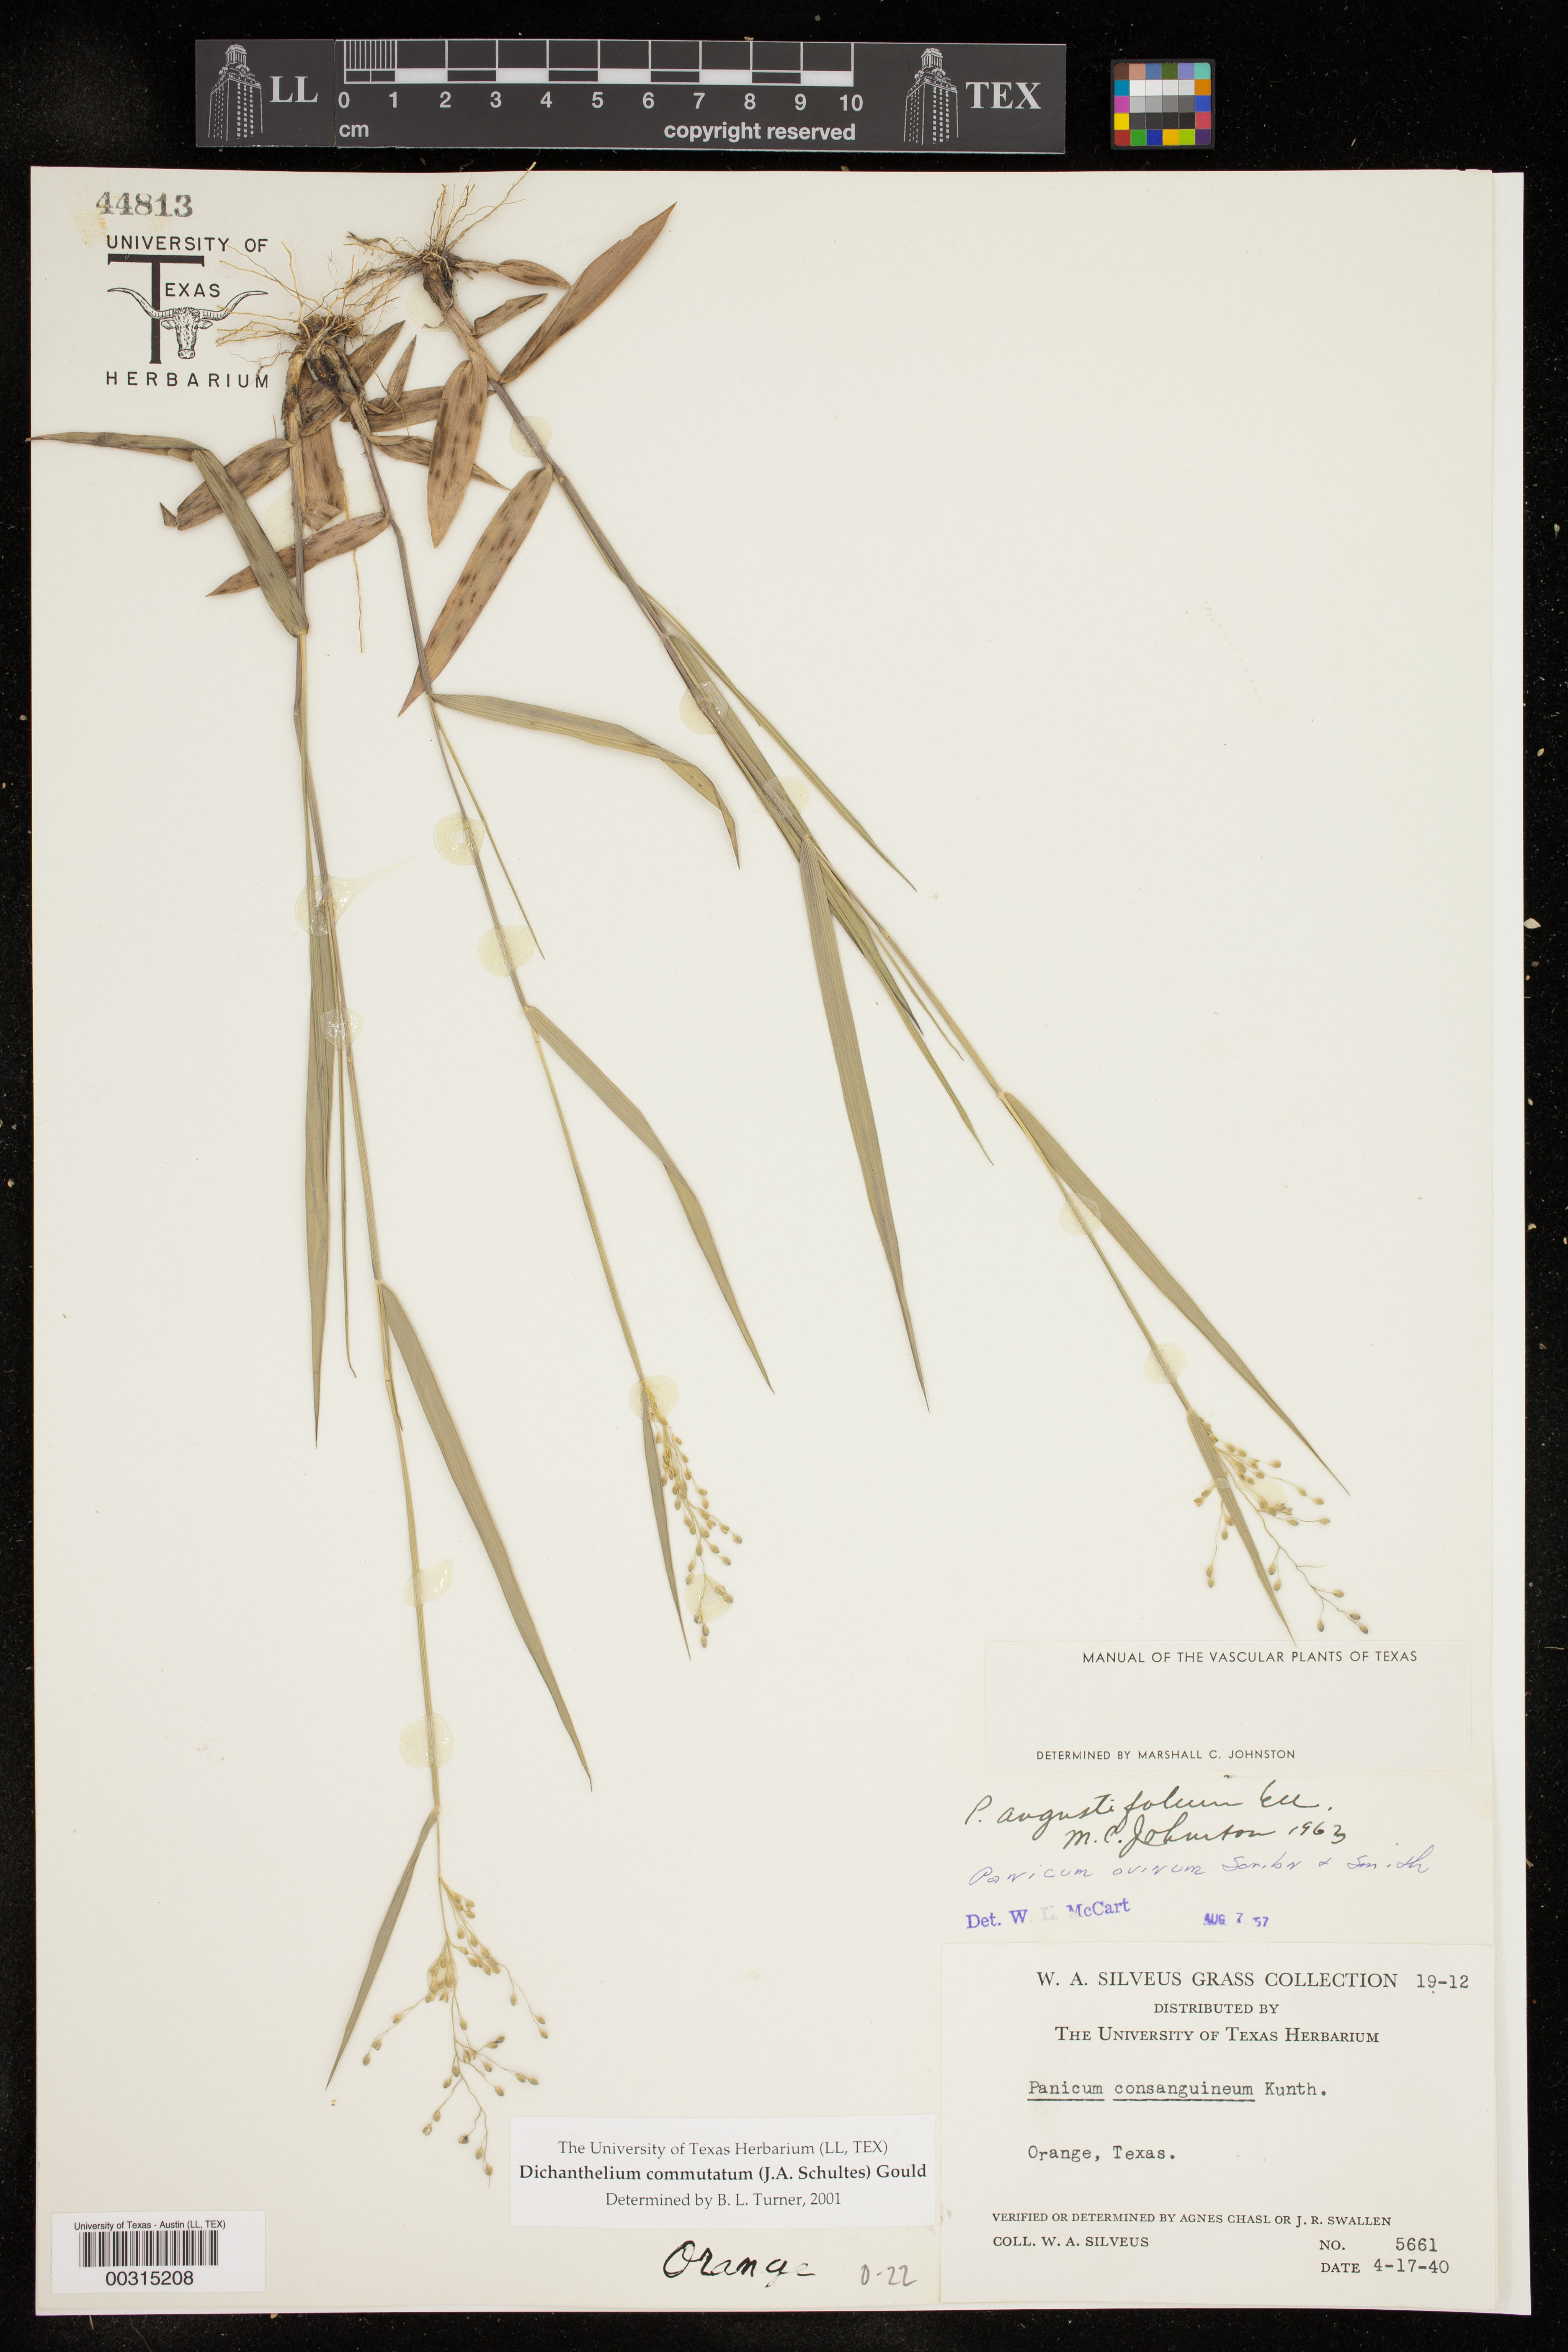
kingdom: Plantae
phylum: Tracheophyta
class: Liliopsida
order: Poales
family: Poaceae
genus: Dichanthelium
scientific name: Dichanthelium commutatum
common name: Variable witchgrass
